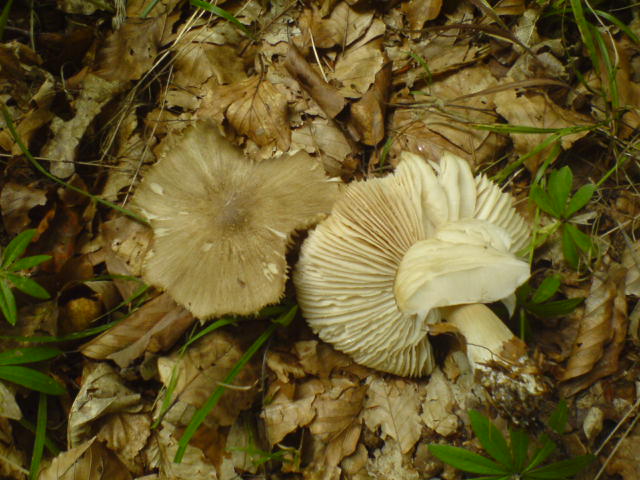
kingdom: Fungi
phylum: Basidiomycota
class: Agaricomycetes
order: Agaricales
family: Tricholomataceae
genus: Megacollybia
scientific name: Megacollybia platyphylla
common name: bredbladet væbnerhat
